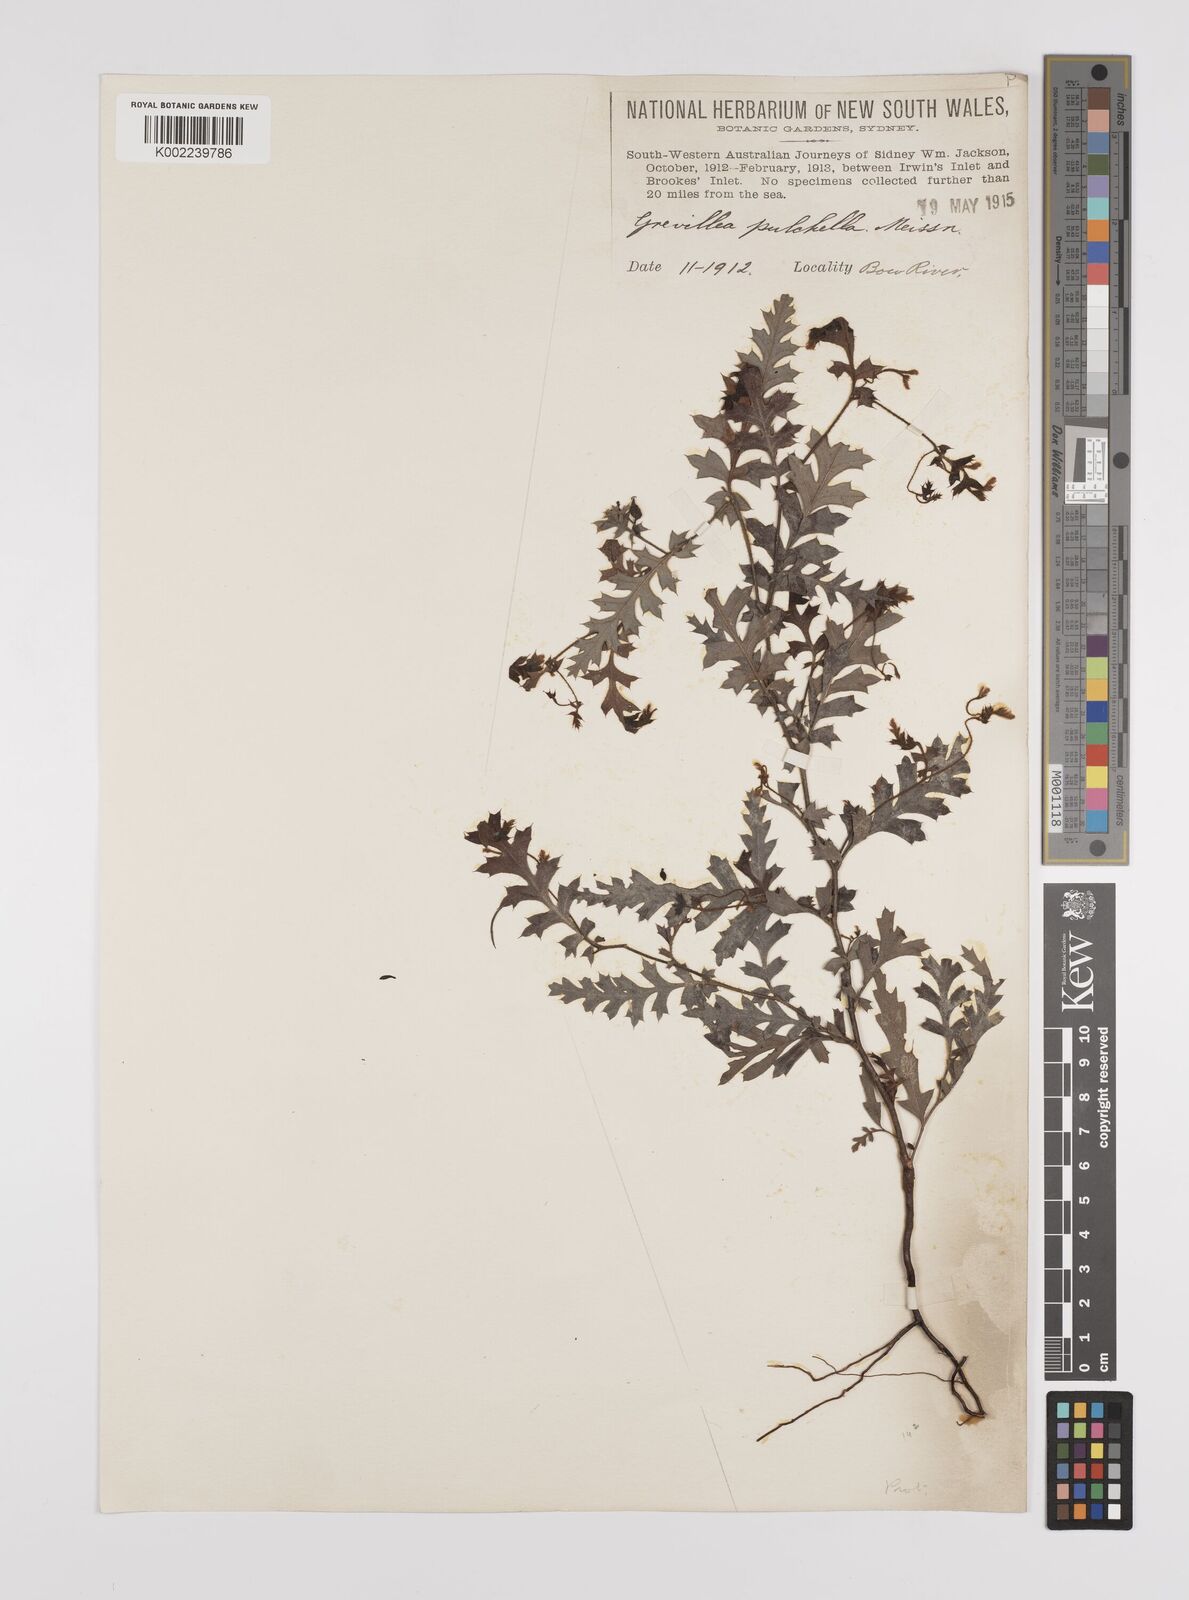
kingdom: Plantae
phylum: Tracheophyta
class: Magnoliopsida
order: Proteales
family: Proteaceae
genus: Grevillea
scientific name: Grevillea pulchella
